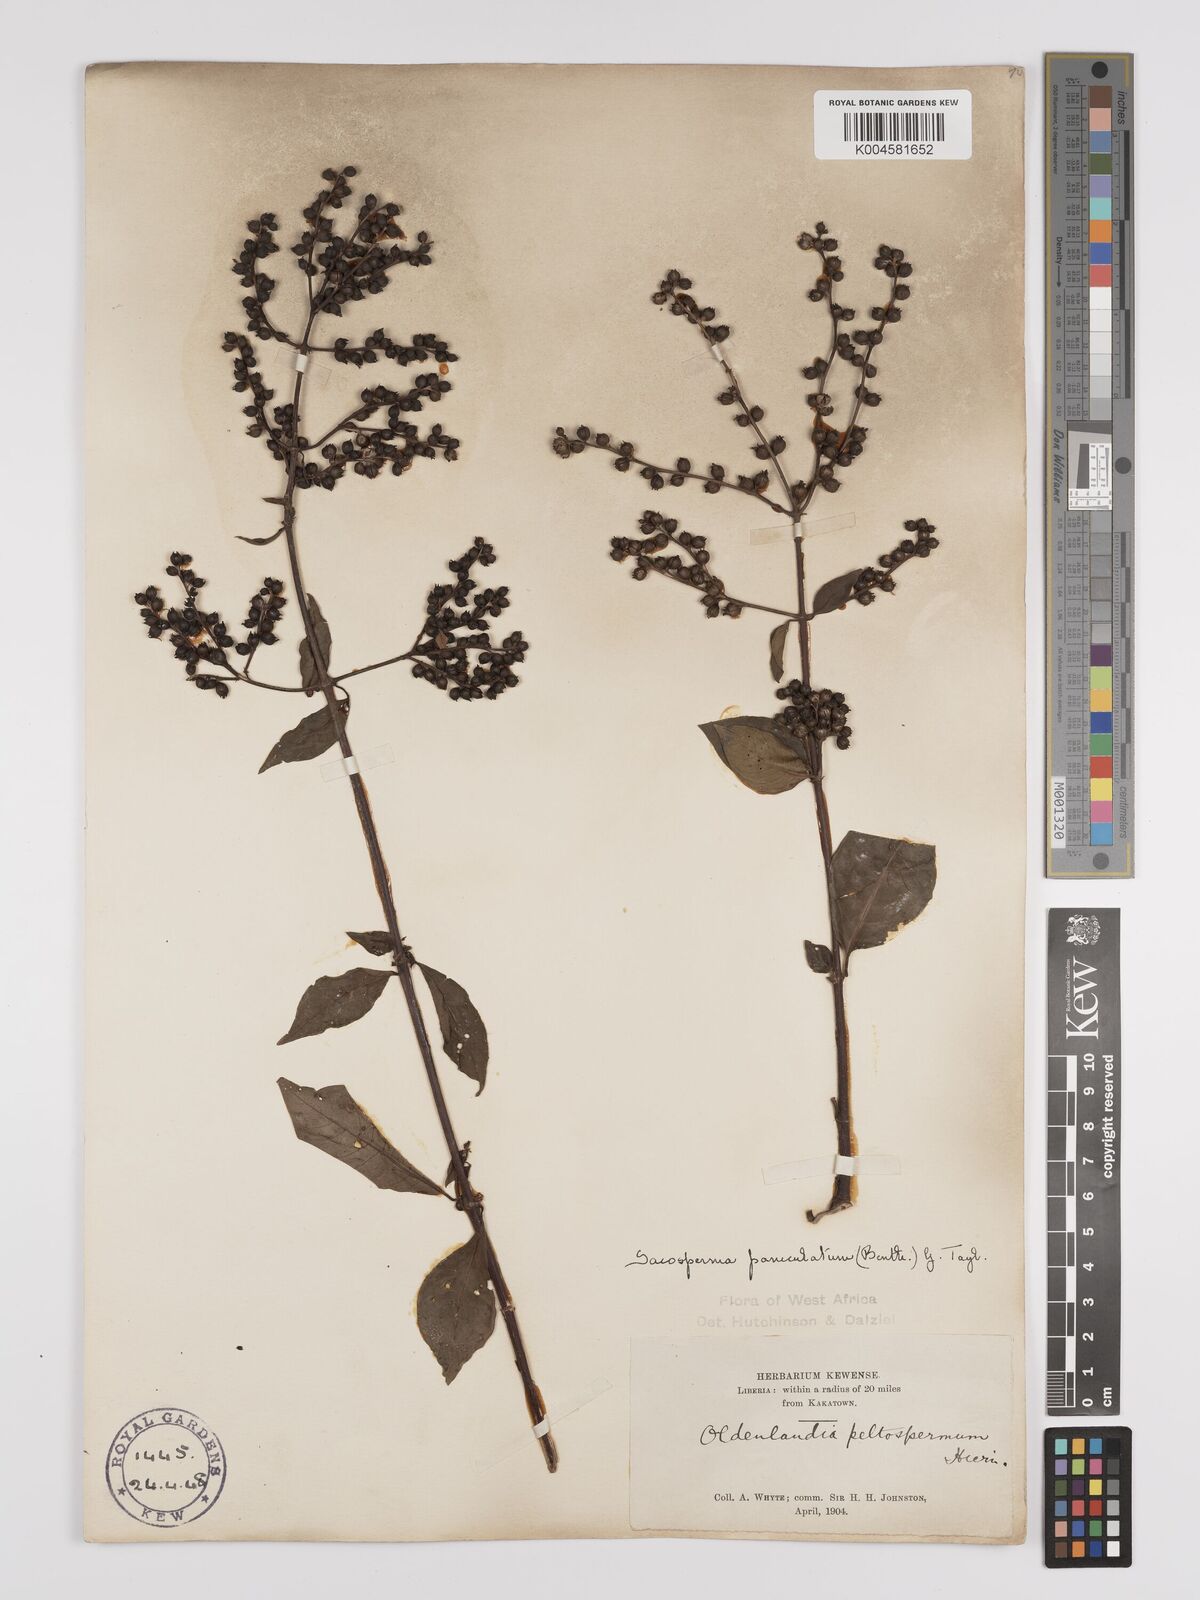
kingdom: Plantae
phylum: Tracheophyta
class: Magnoliopsida
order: Gentianales
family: Rubiaceae
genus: Sacosperma
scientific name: Sacosperma paniculatum
